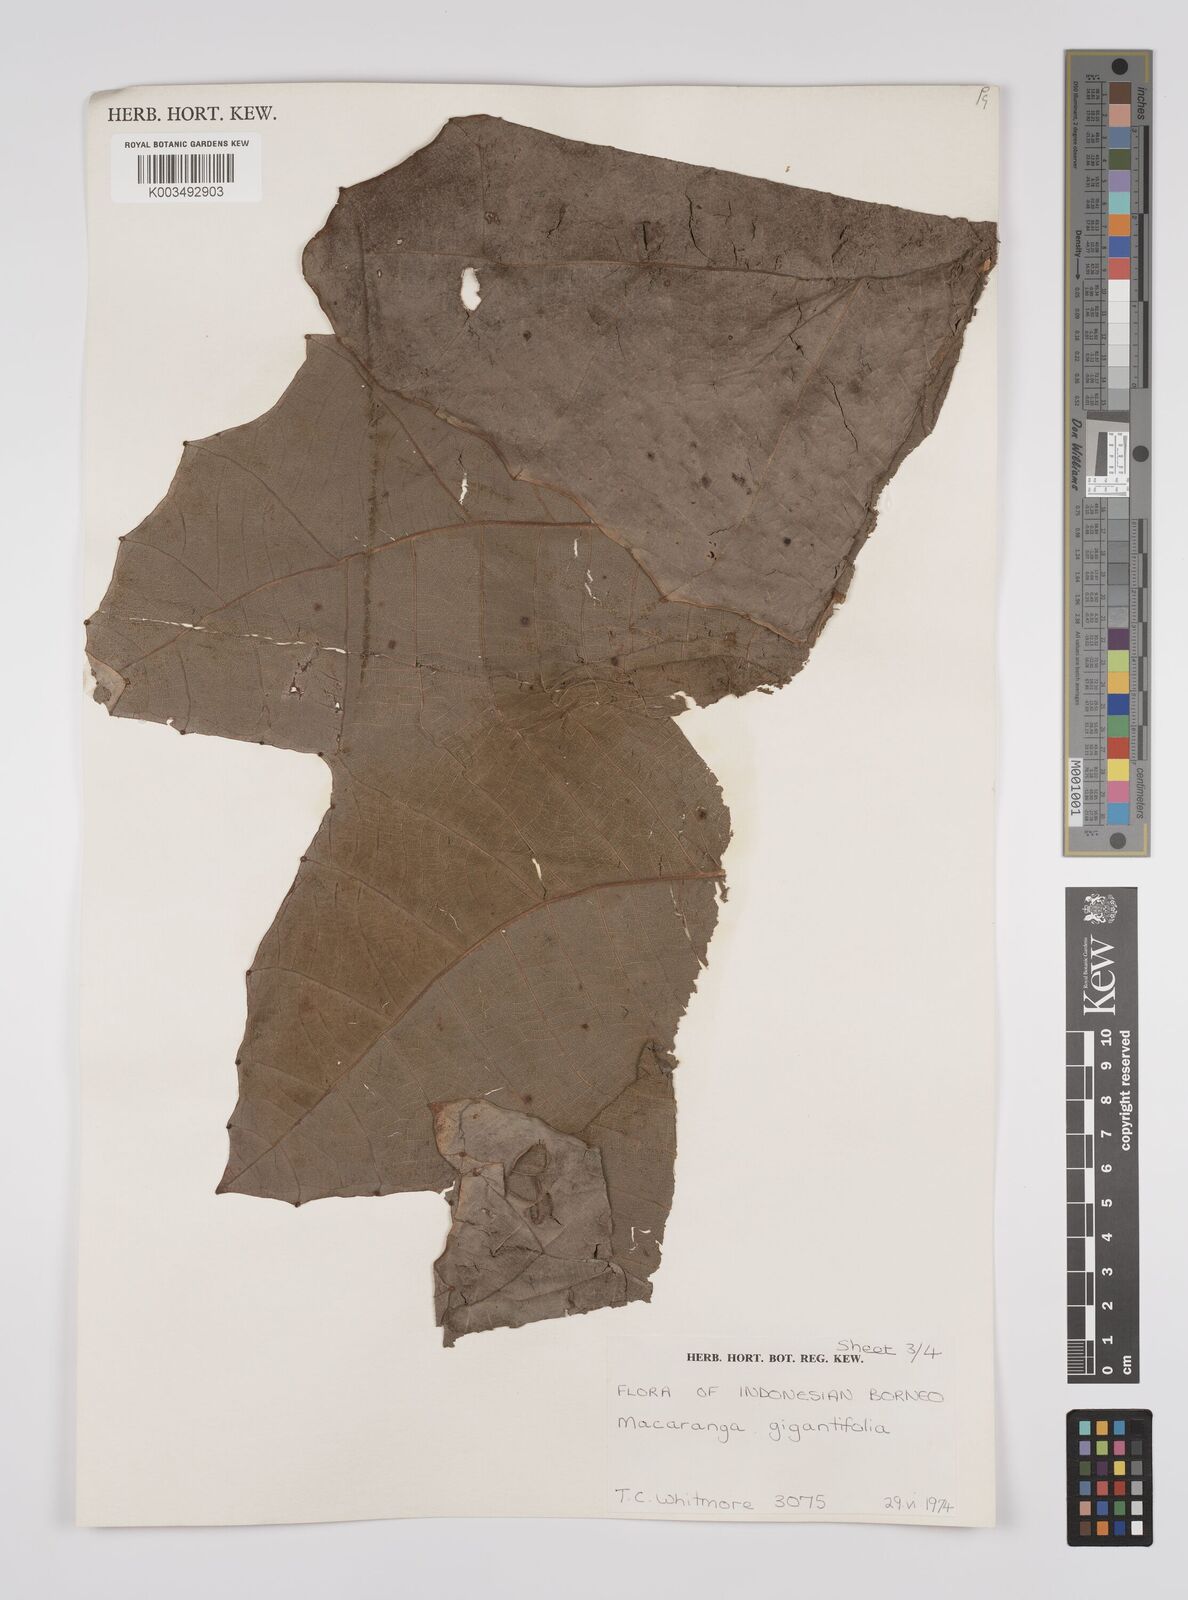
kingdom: Plantae
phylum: Tracheophyta
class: Magnoliopsida
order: Malpighiales
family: Euphorbiaceae
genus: Macaranga
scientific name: Macaranga gigantea
